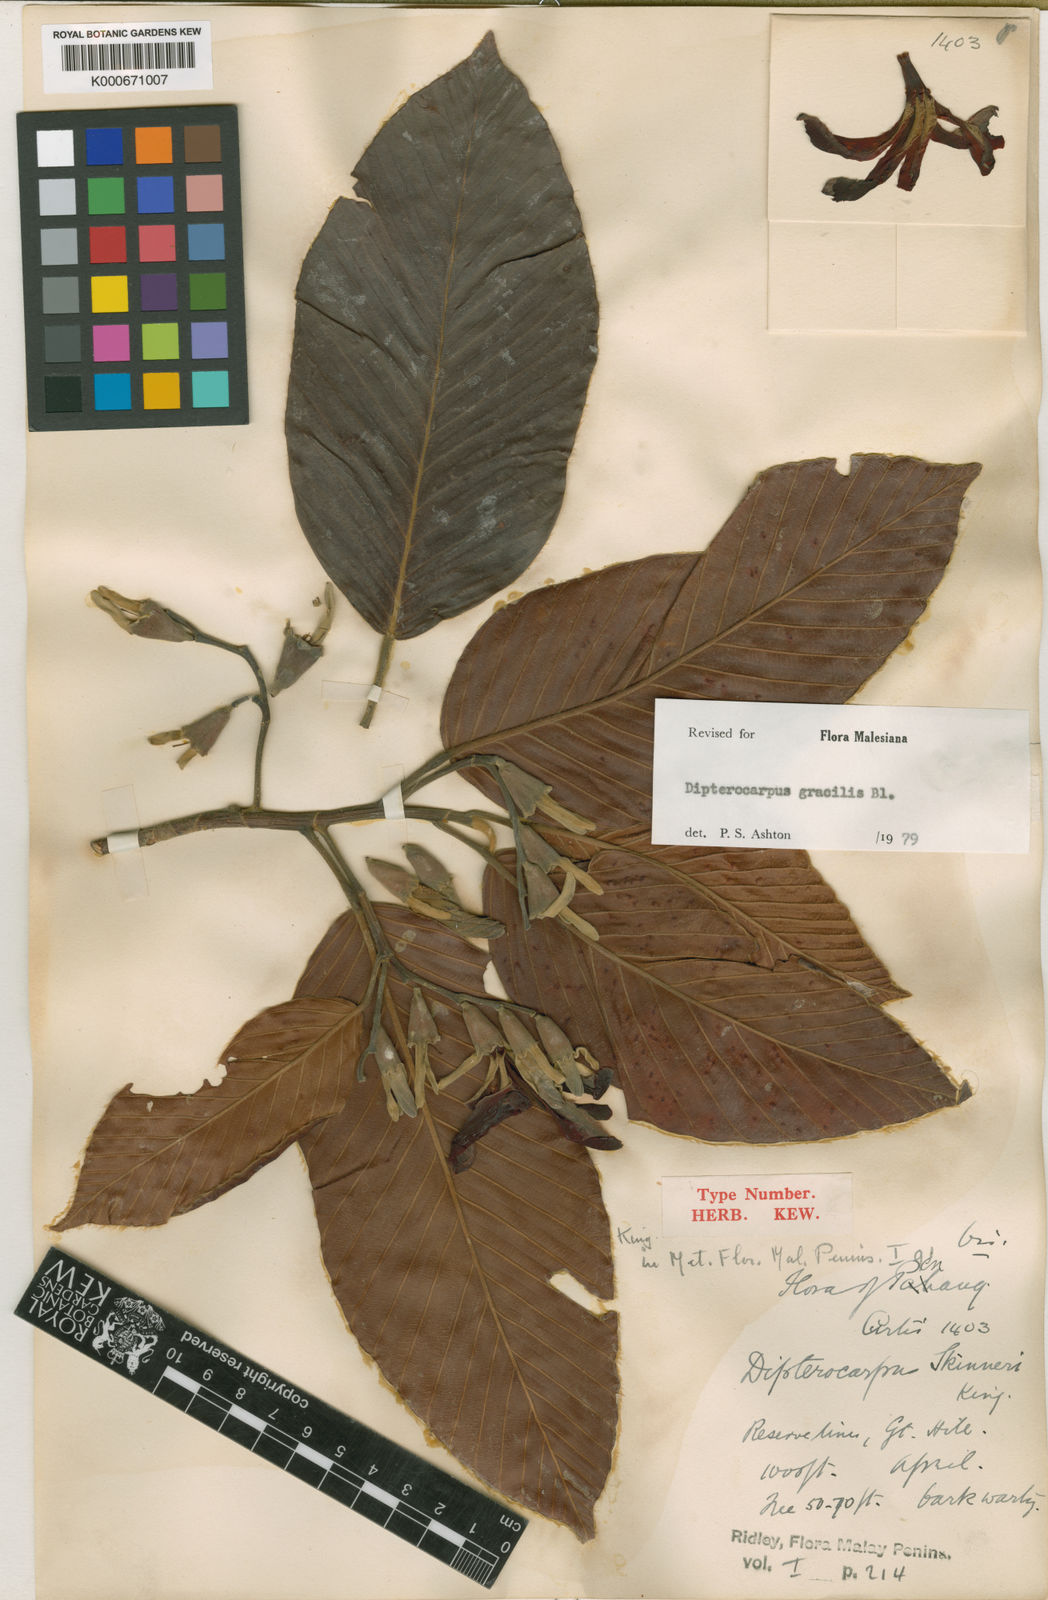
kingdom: Plantae
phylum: Tracheophyta
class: Magnoliopsida
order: Malvales
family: Dipterocarpaceae
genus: Dipterocarpus
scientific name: Dipterocarpus gracilis
